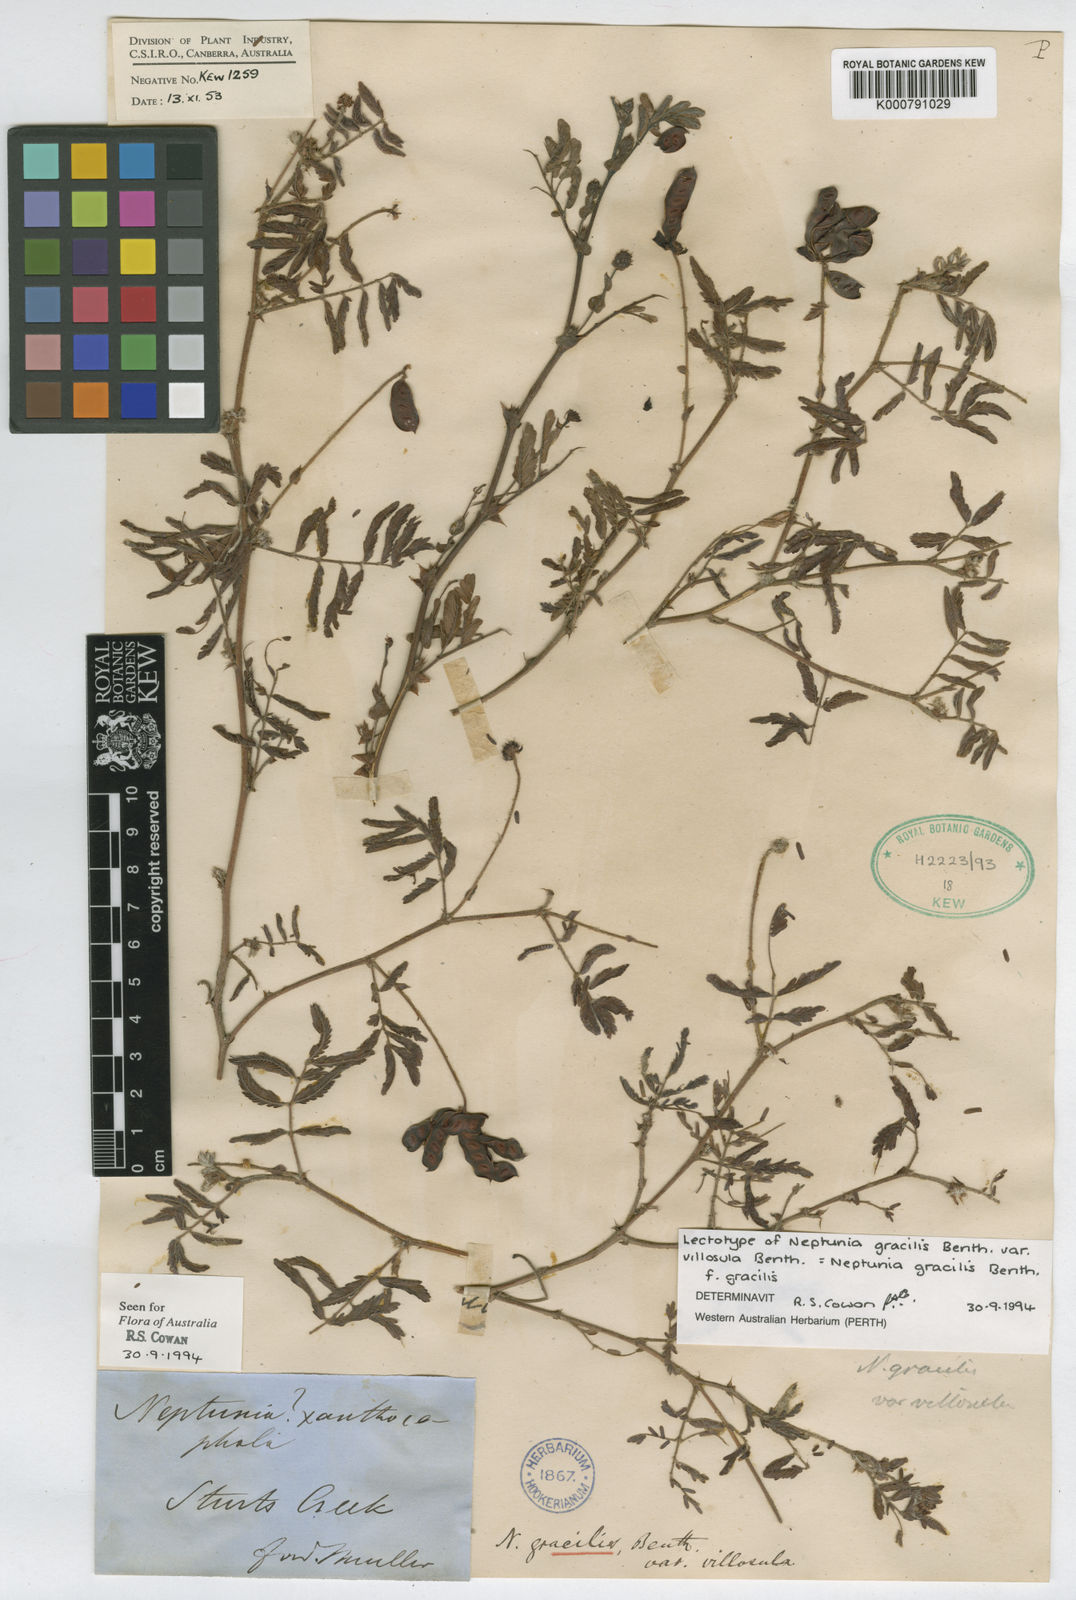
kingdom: Plantae
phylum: Tracheophyta
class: Magnoliopsida
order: Fabales
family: Fabaceae
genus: Neptunia
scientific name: Neptunia gracilis
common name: Sensitive-plant
